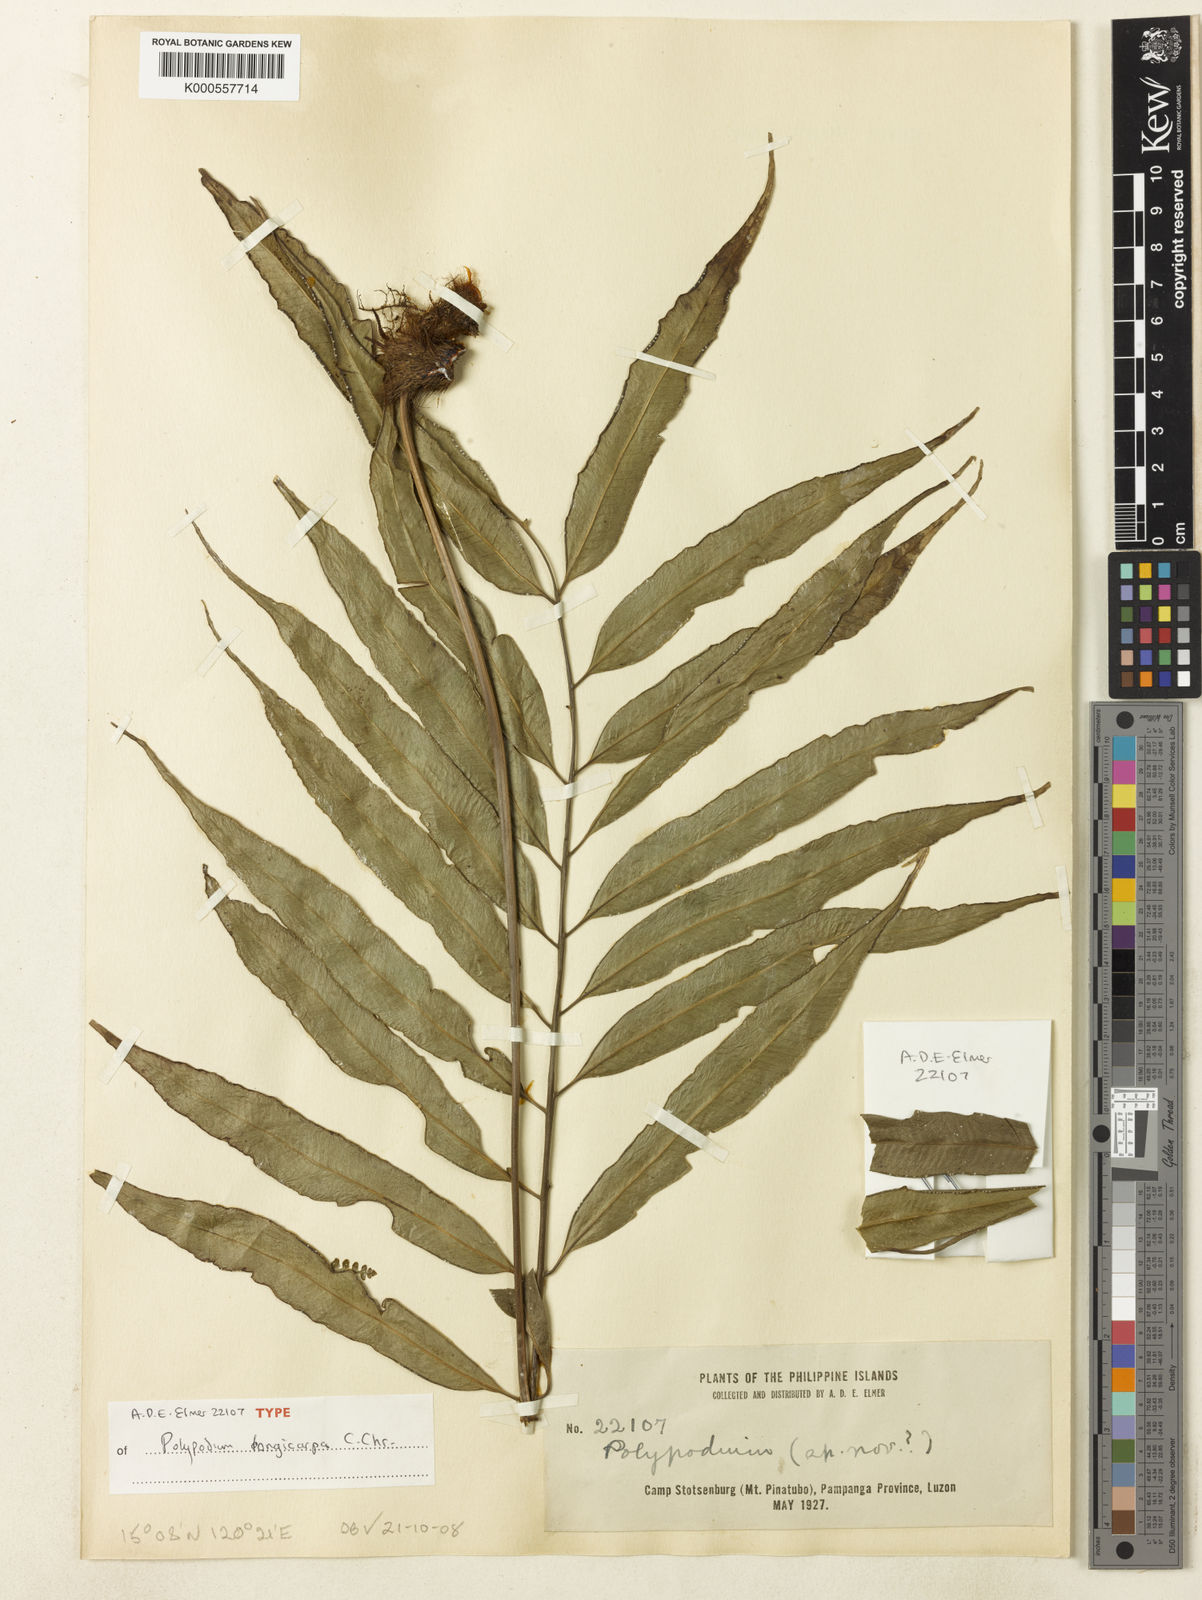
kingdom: Plantae
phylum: Tracheophyta
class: Polypodiopsida
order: Polypodiales
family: Polypodiaceae
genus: Selliguea
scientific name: Selliguea albidosquamata
